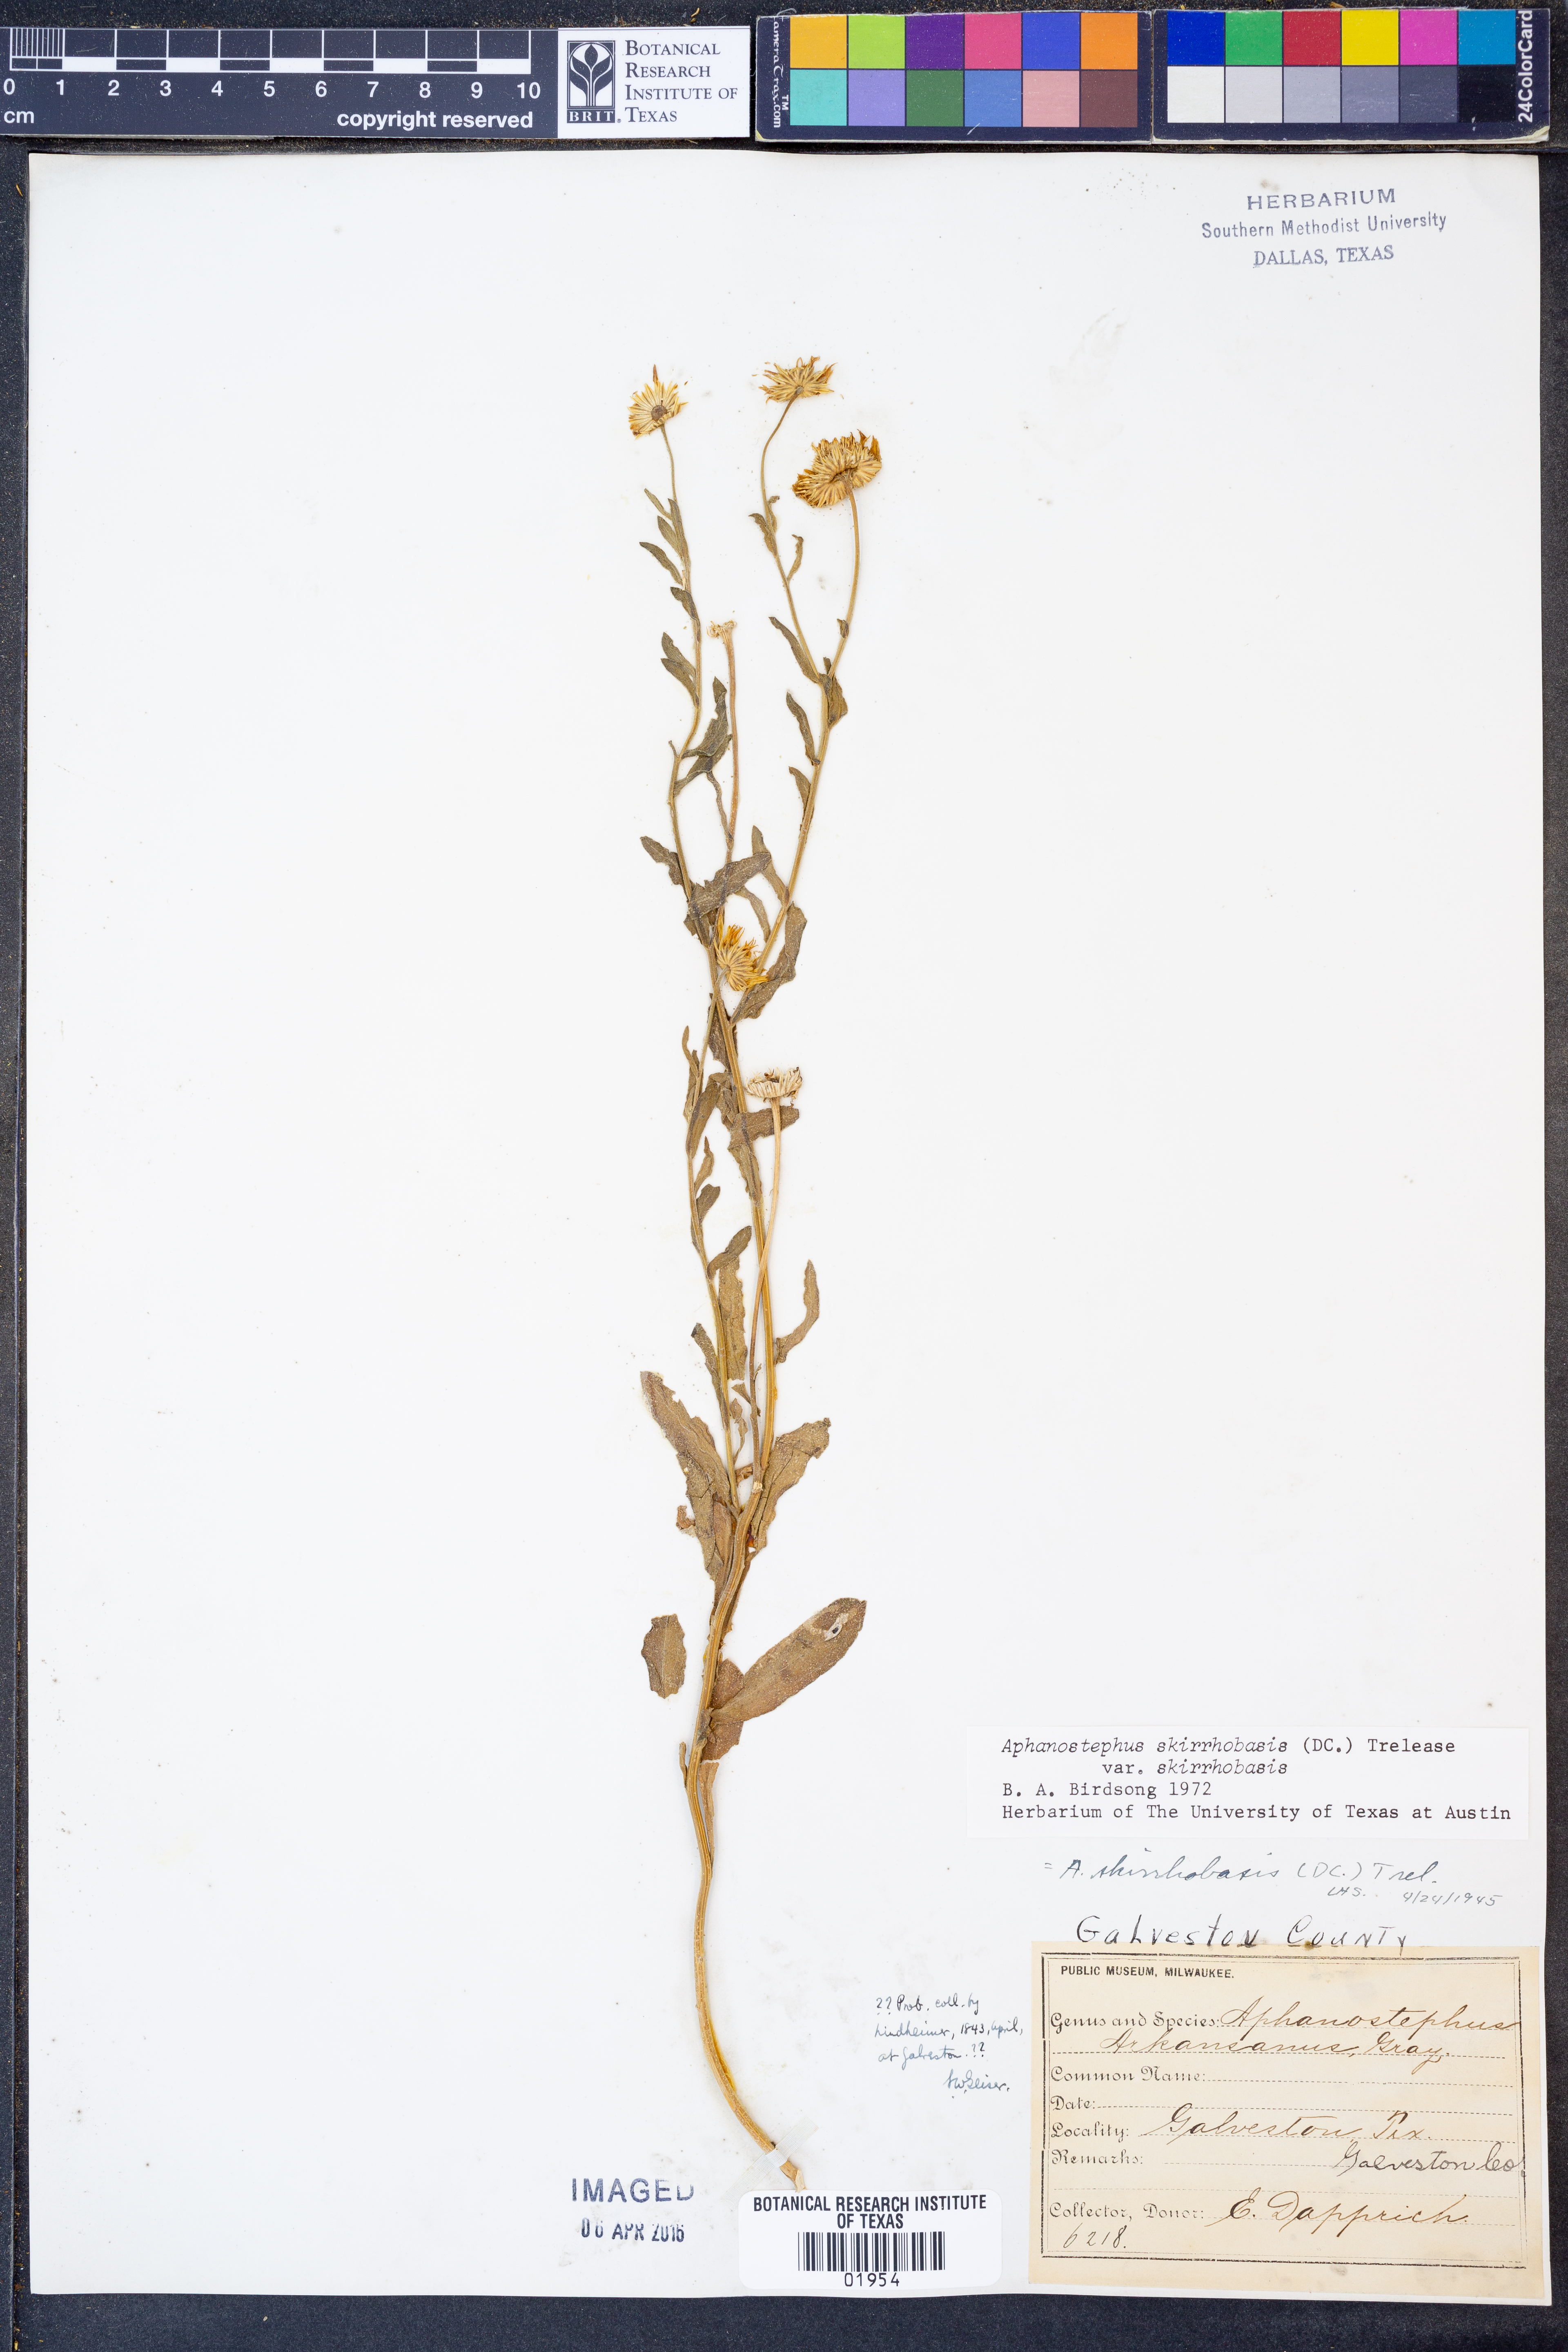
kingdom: Plantae
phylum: Tracheophyta
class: Magnoliopsida
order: Asterales
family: Asteraceae
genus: Aphanostephus
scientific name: Aphanostephus skirrhobasis
